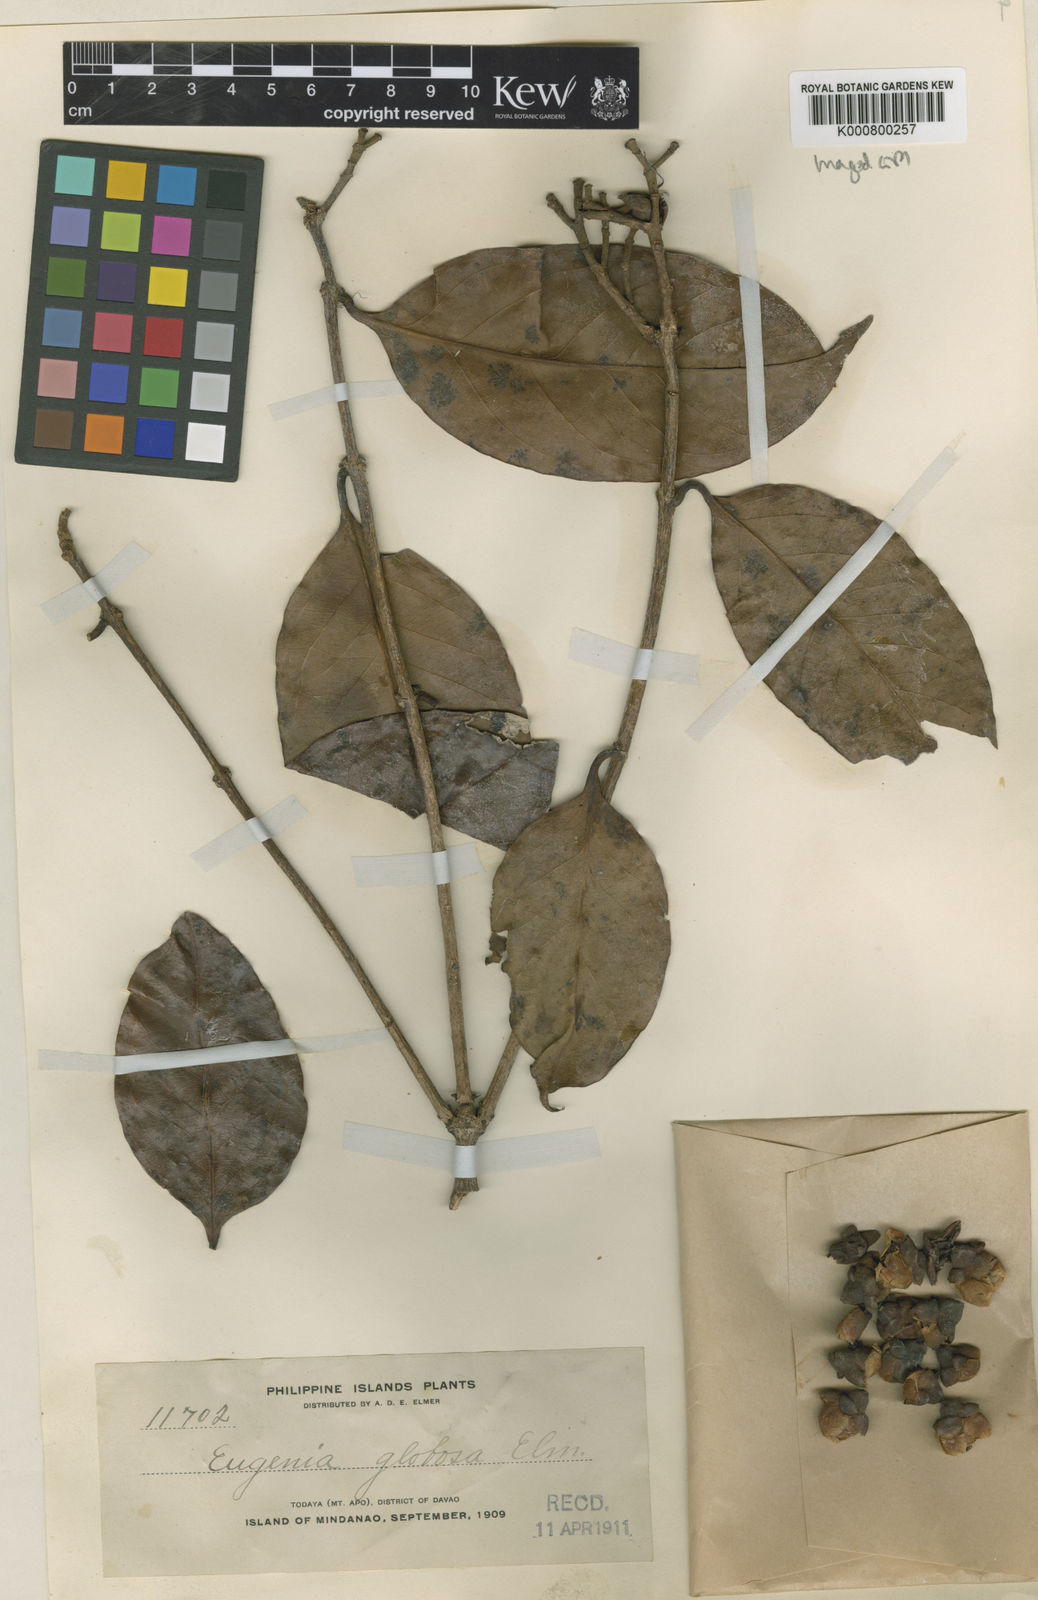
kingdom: Plantae
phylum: Tracheophyta
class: Magnoliopsida
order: Myrtales
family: Myrtaceae
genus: Syzygium
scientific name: Syzygium globosum
